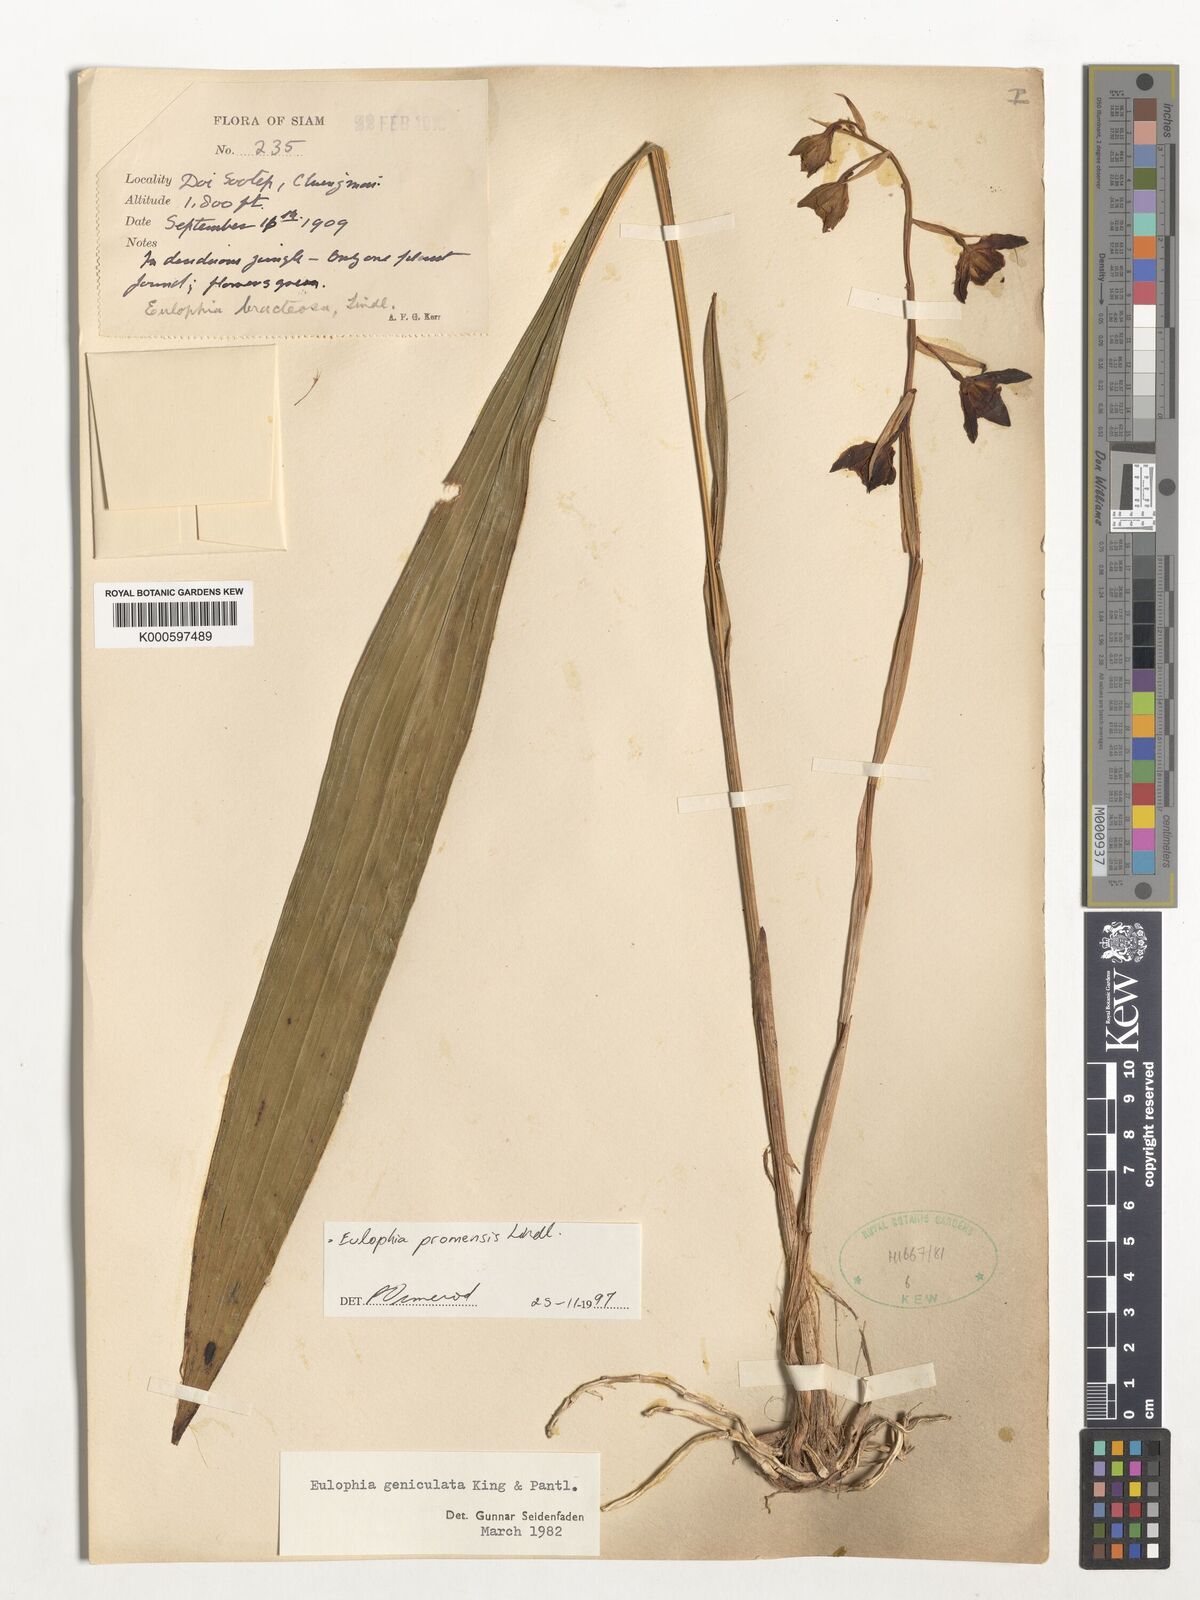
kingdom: Plantae
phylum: Tracheophyta
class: Liliopsida
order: Asparagales
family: Orchidaceae
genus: Eulophia
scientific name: Eulophia promensis
